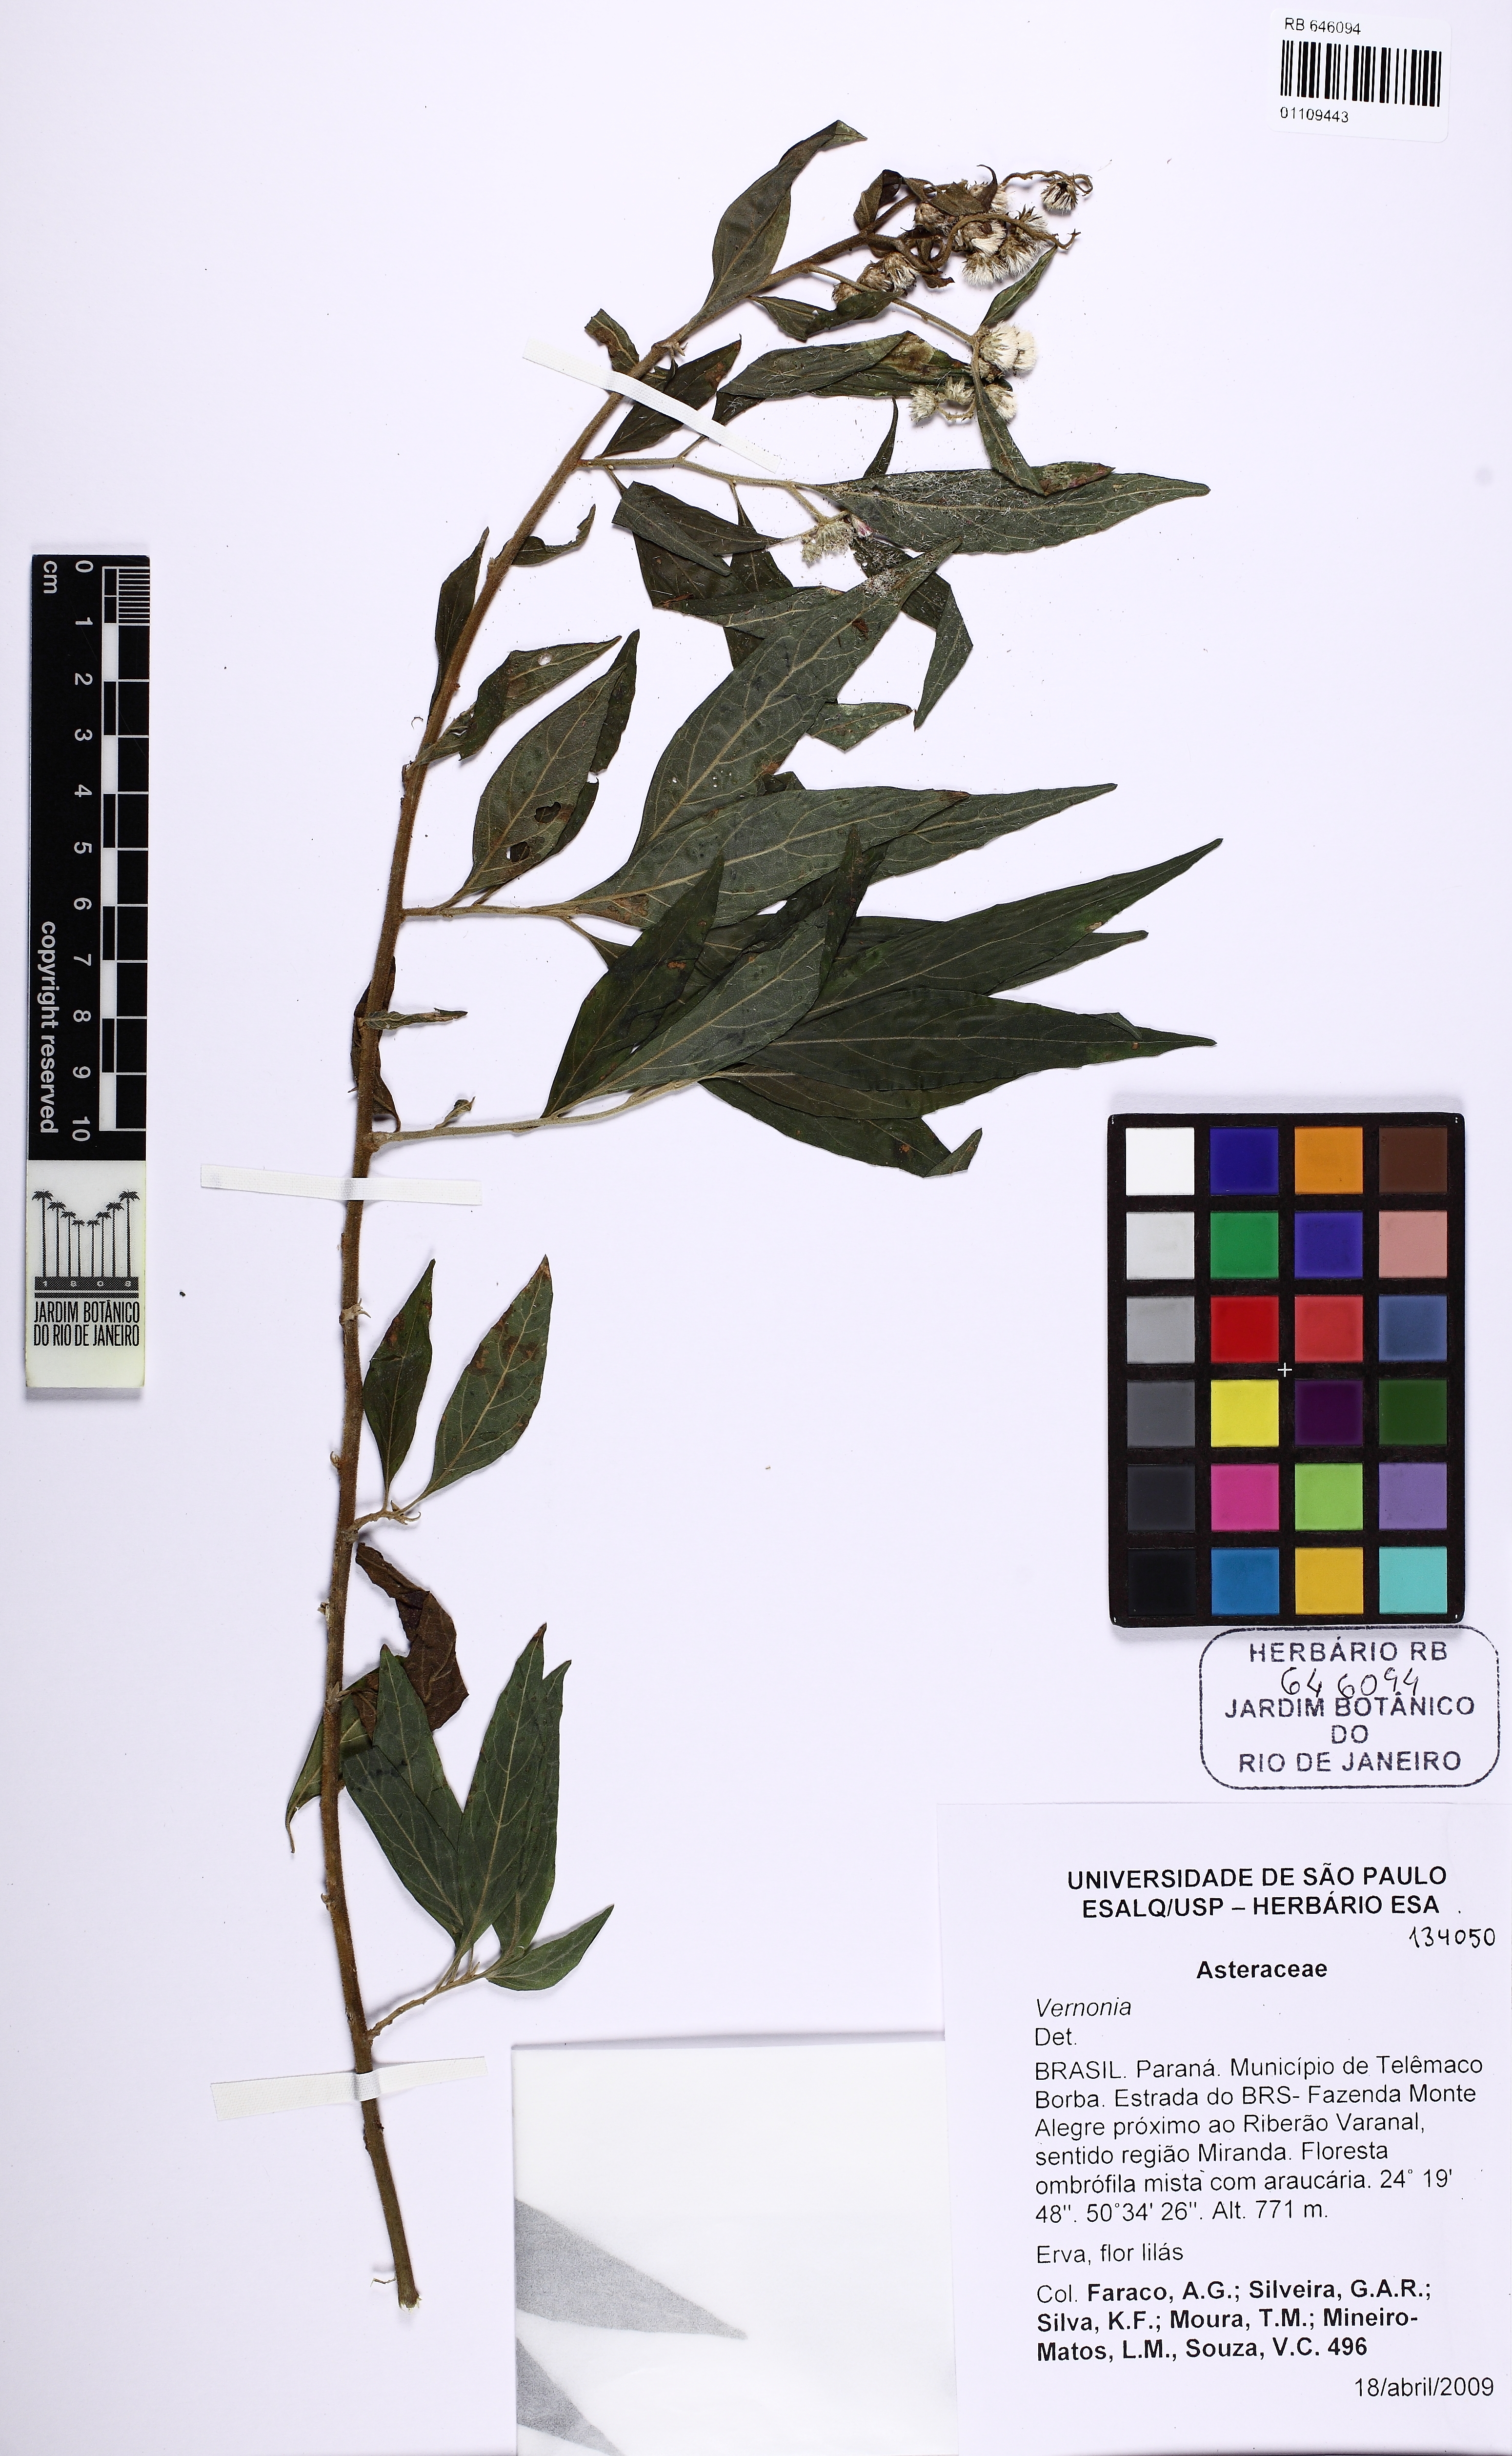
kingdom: Plantae
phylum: Tracheophyta
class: Magnoliopsida
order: Asterales
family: Asteraceae
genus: Vernonia
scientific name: Vernonia
